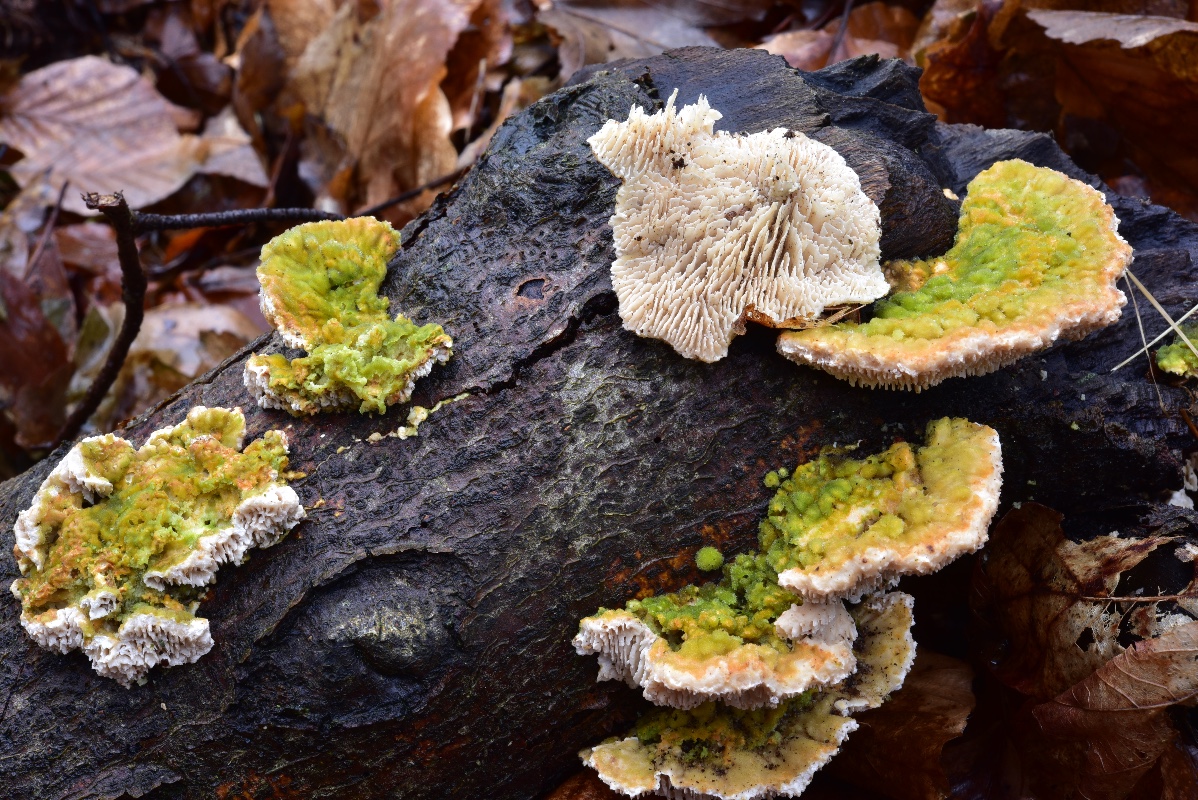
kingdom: Fungi
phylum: Basidiomycota
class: Agaricomycetes
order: Polyporales
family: Polyporaceae
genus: Lenzites
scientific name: Lenzites betulinus
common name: birke-læderporesvamp
